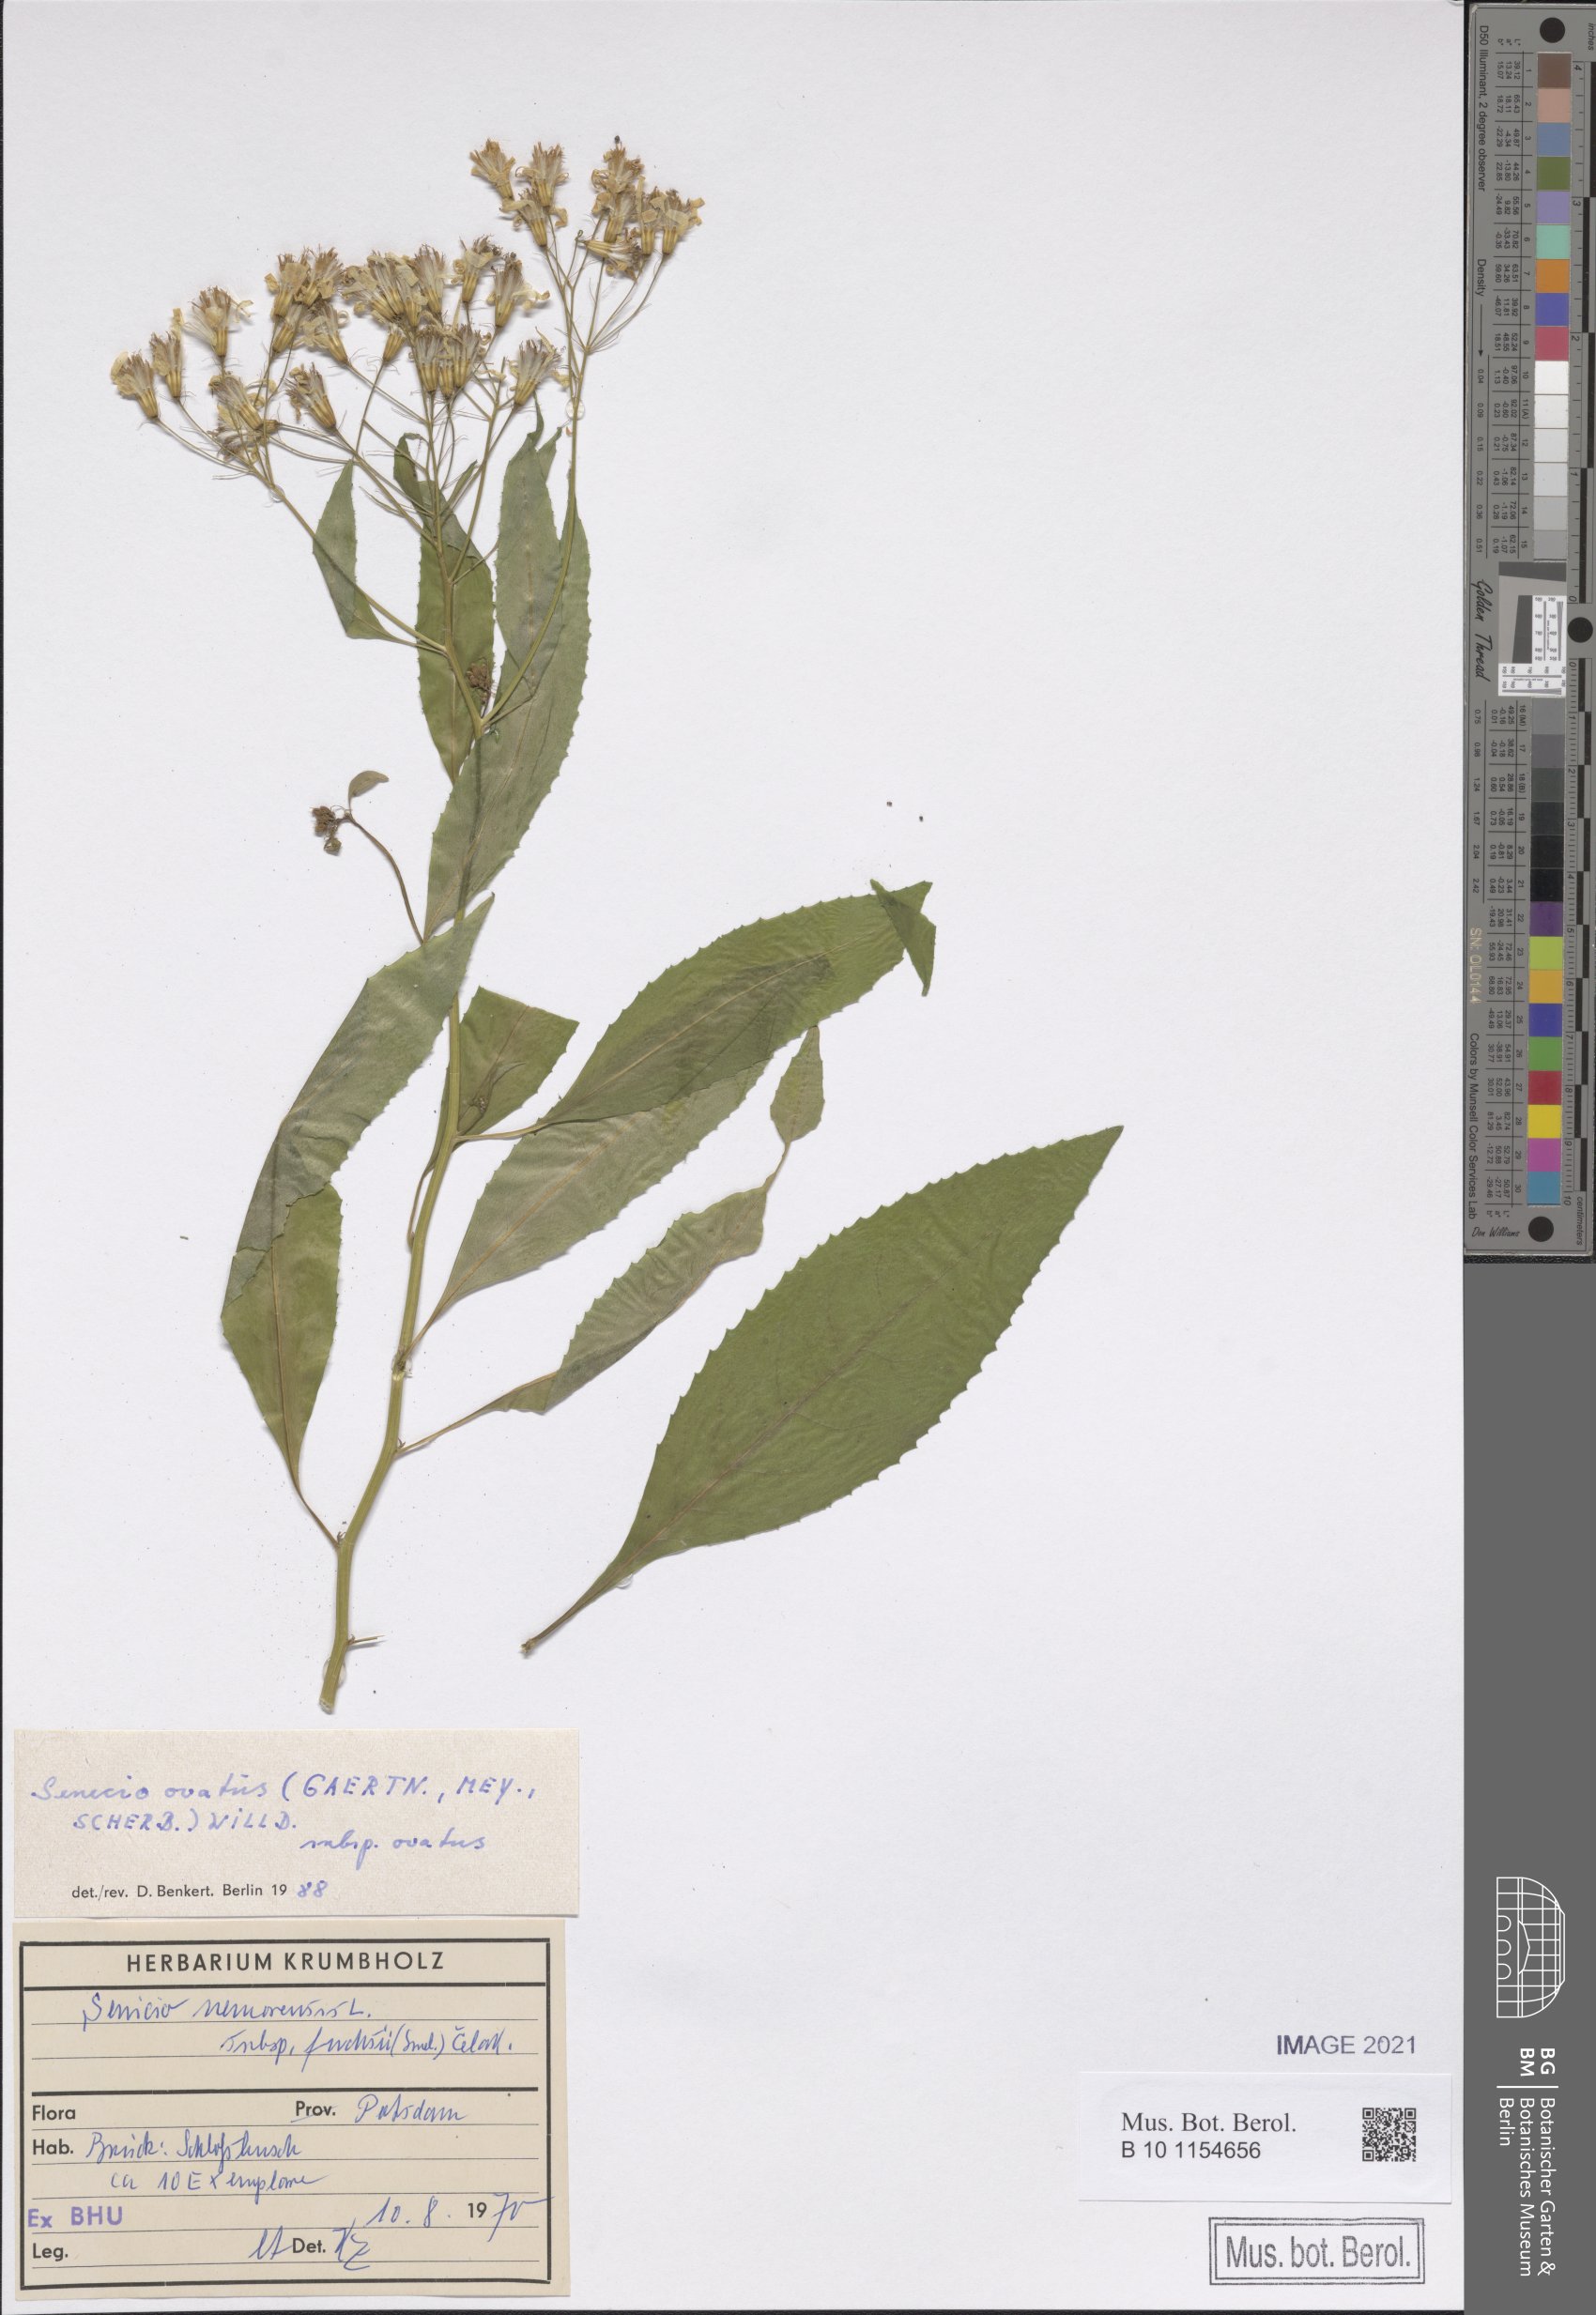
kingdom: Plantae
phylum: Tracheophyta
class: Magnoliopsida
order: Asterales
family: Asteraceae
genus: Senecio
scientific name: Senecio ovatus
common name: Wood ragwort
